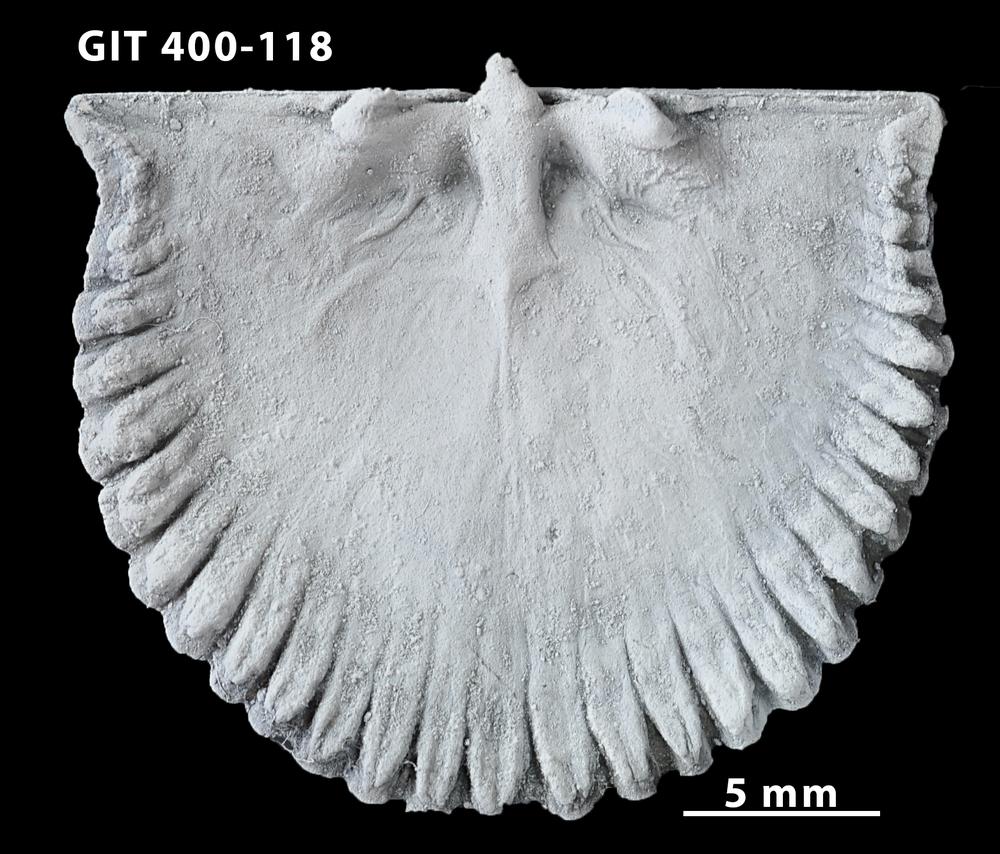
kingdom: Animalia
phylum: Brachiopoda
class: Rhynchonellata
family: Orthidae
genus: Cyrtonotella
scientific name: Cyrtonotella
